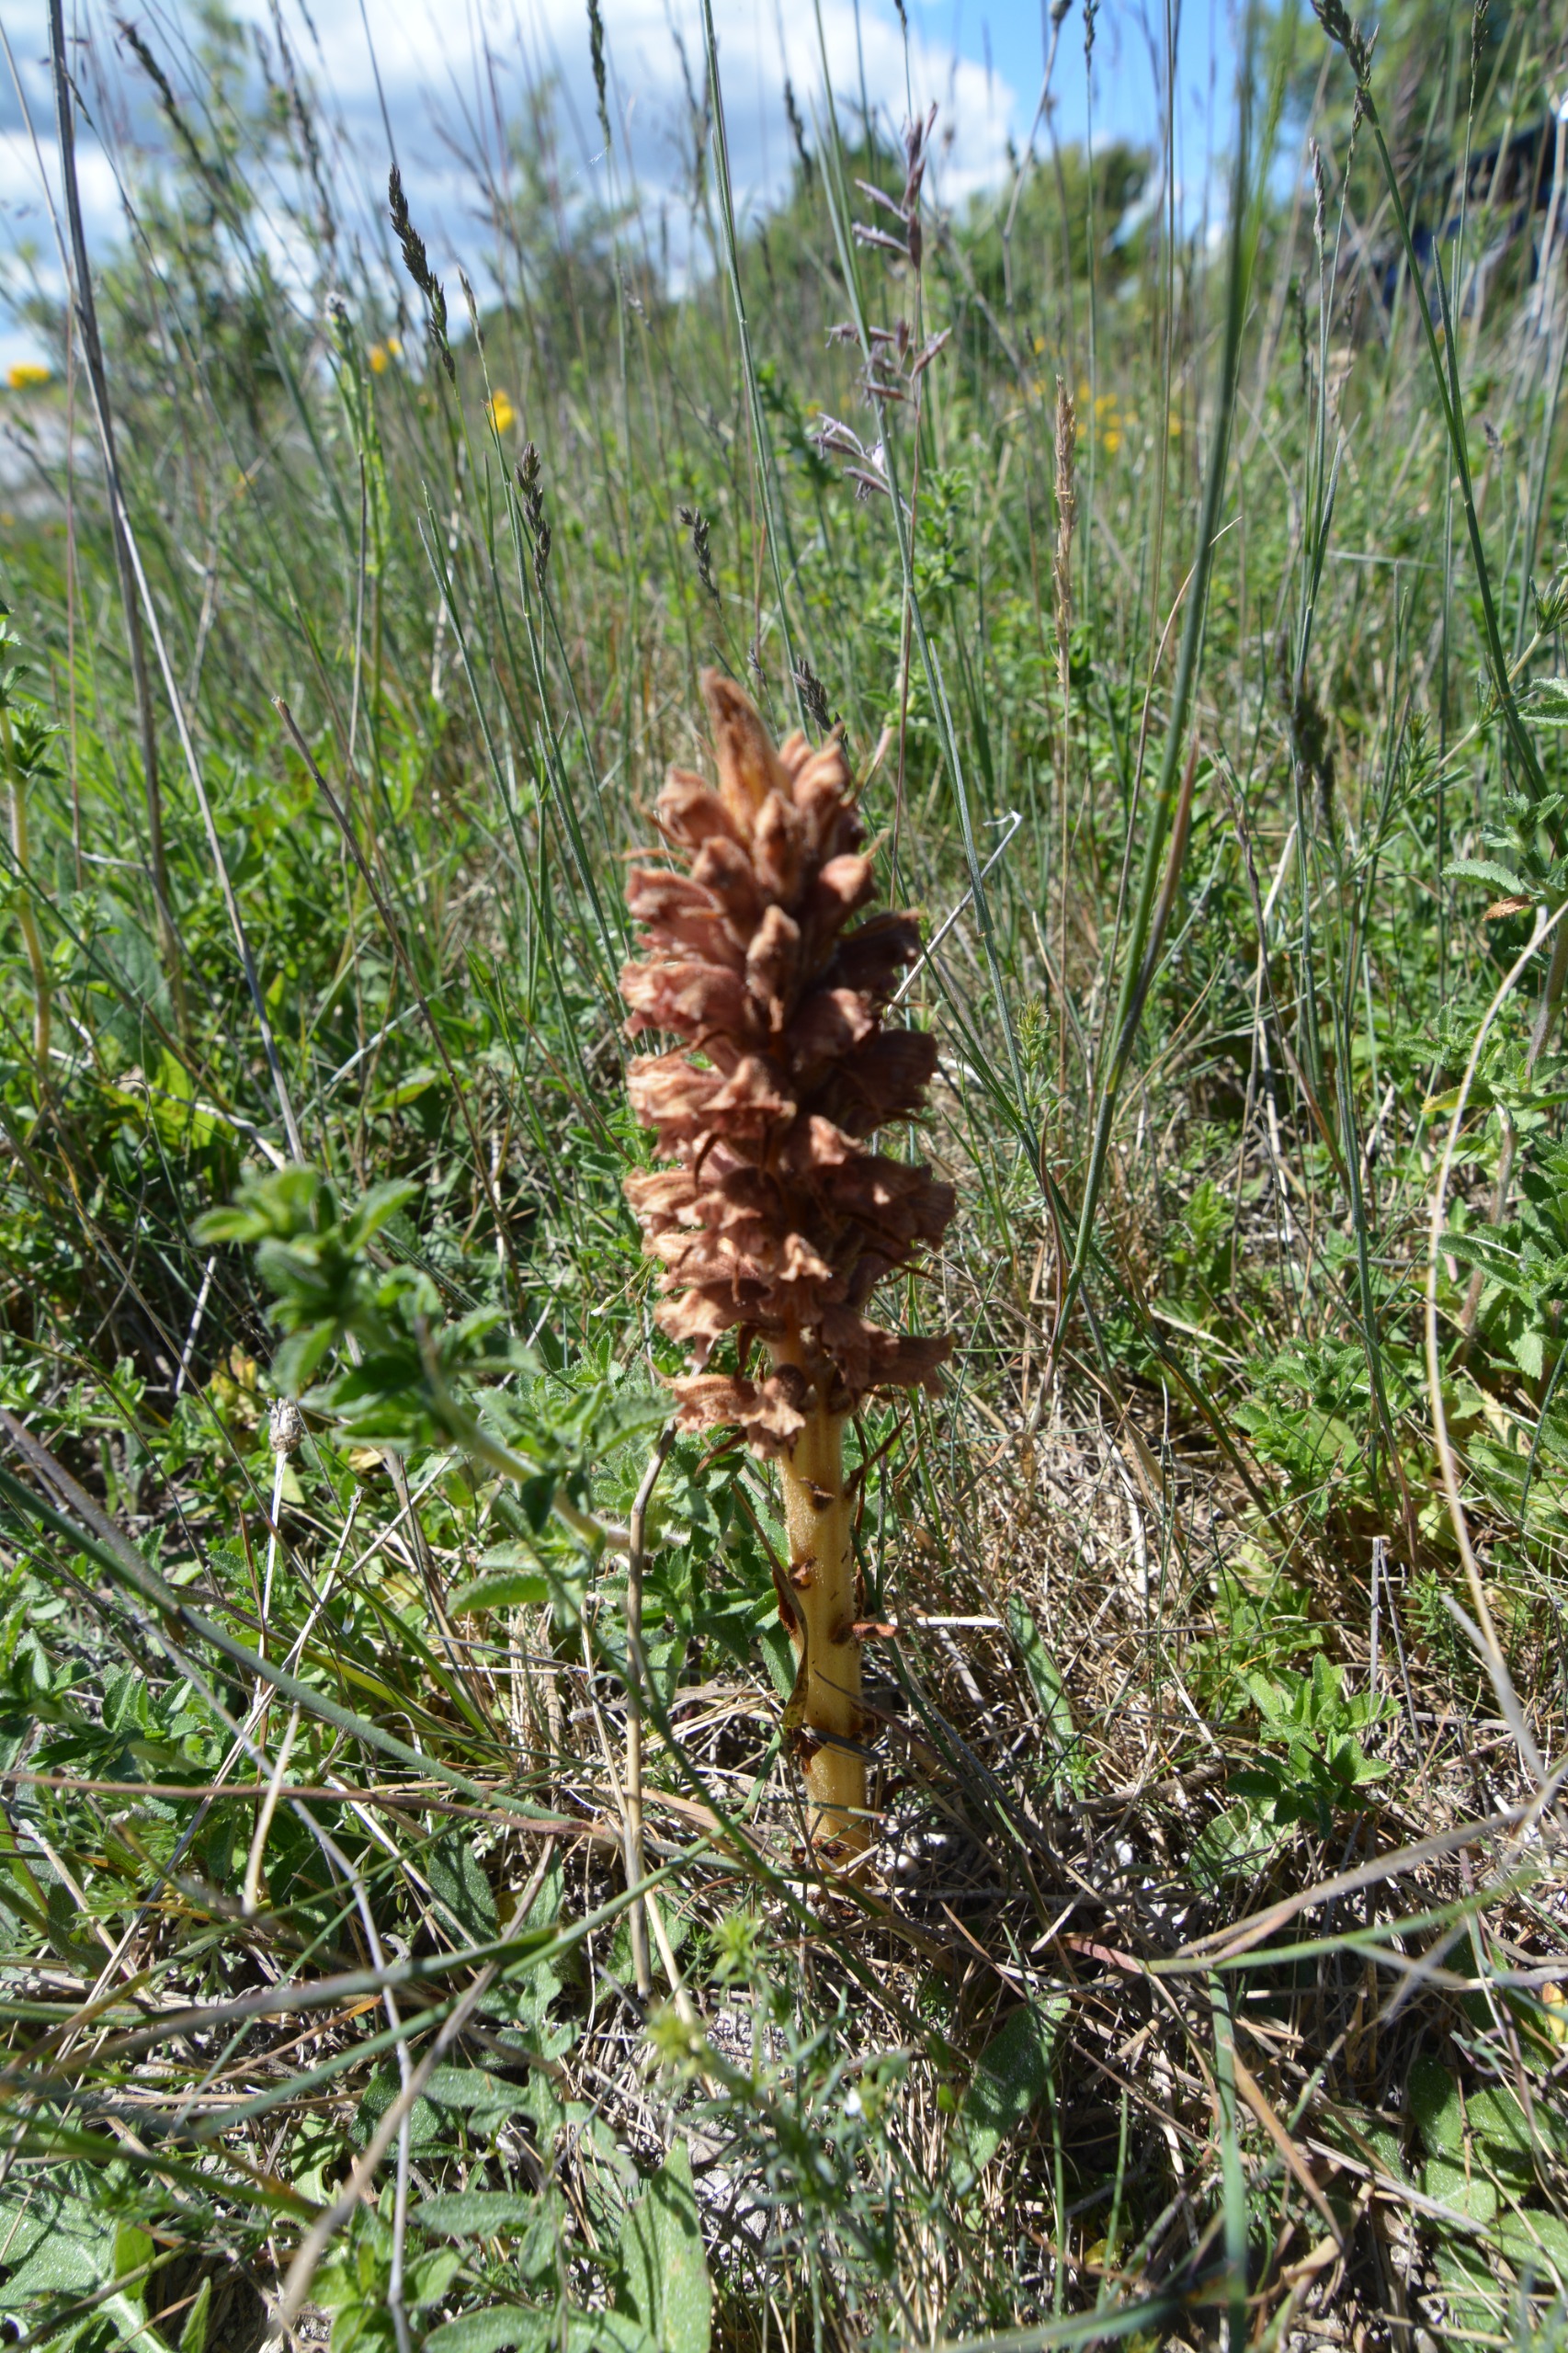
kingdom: Plantae
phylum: Tracheophyta
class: Magnoliopsida
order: Lamiales
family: Orobanchaceae
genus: Orobanche
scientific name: Orobanche elatior
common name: Stor gyvelkvæler
